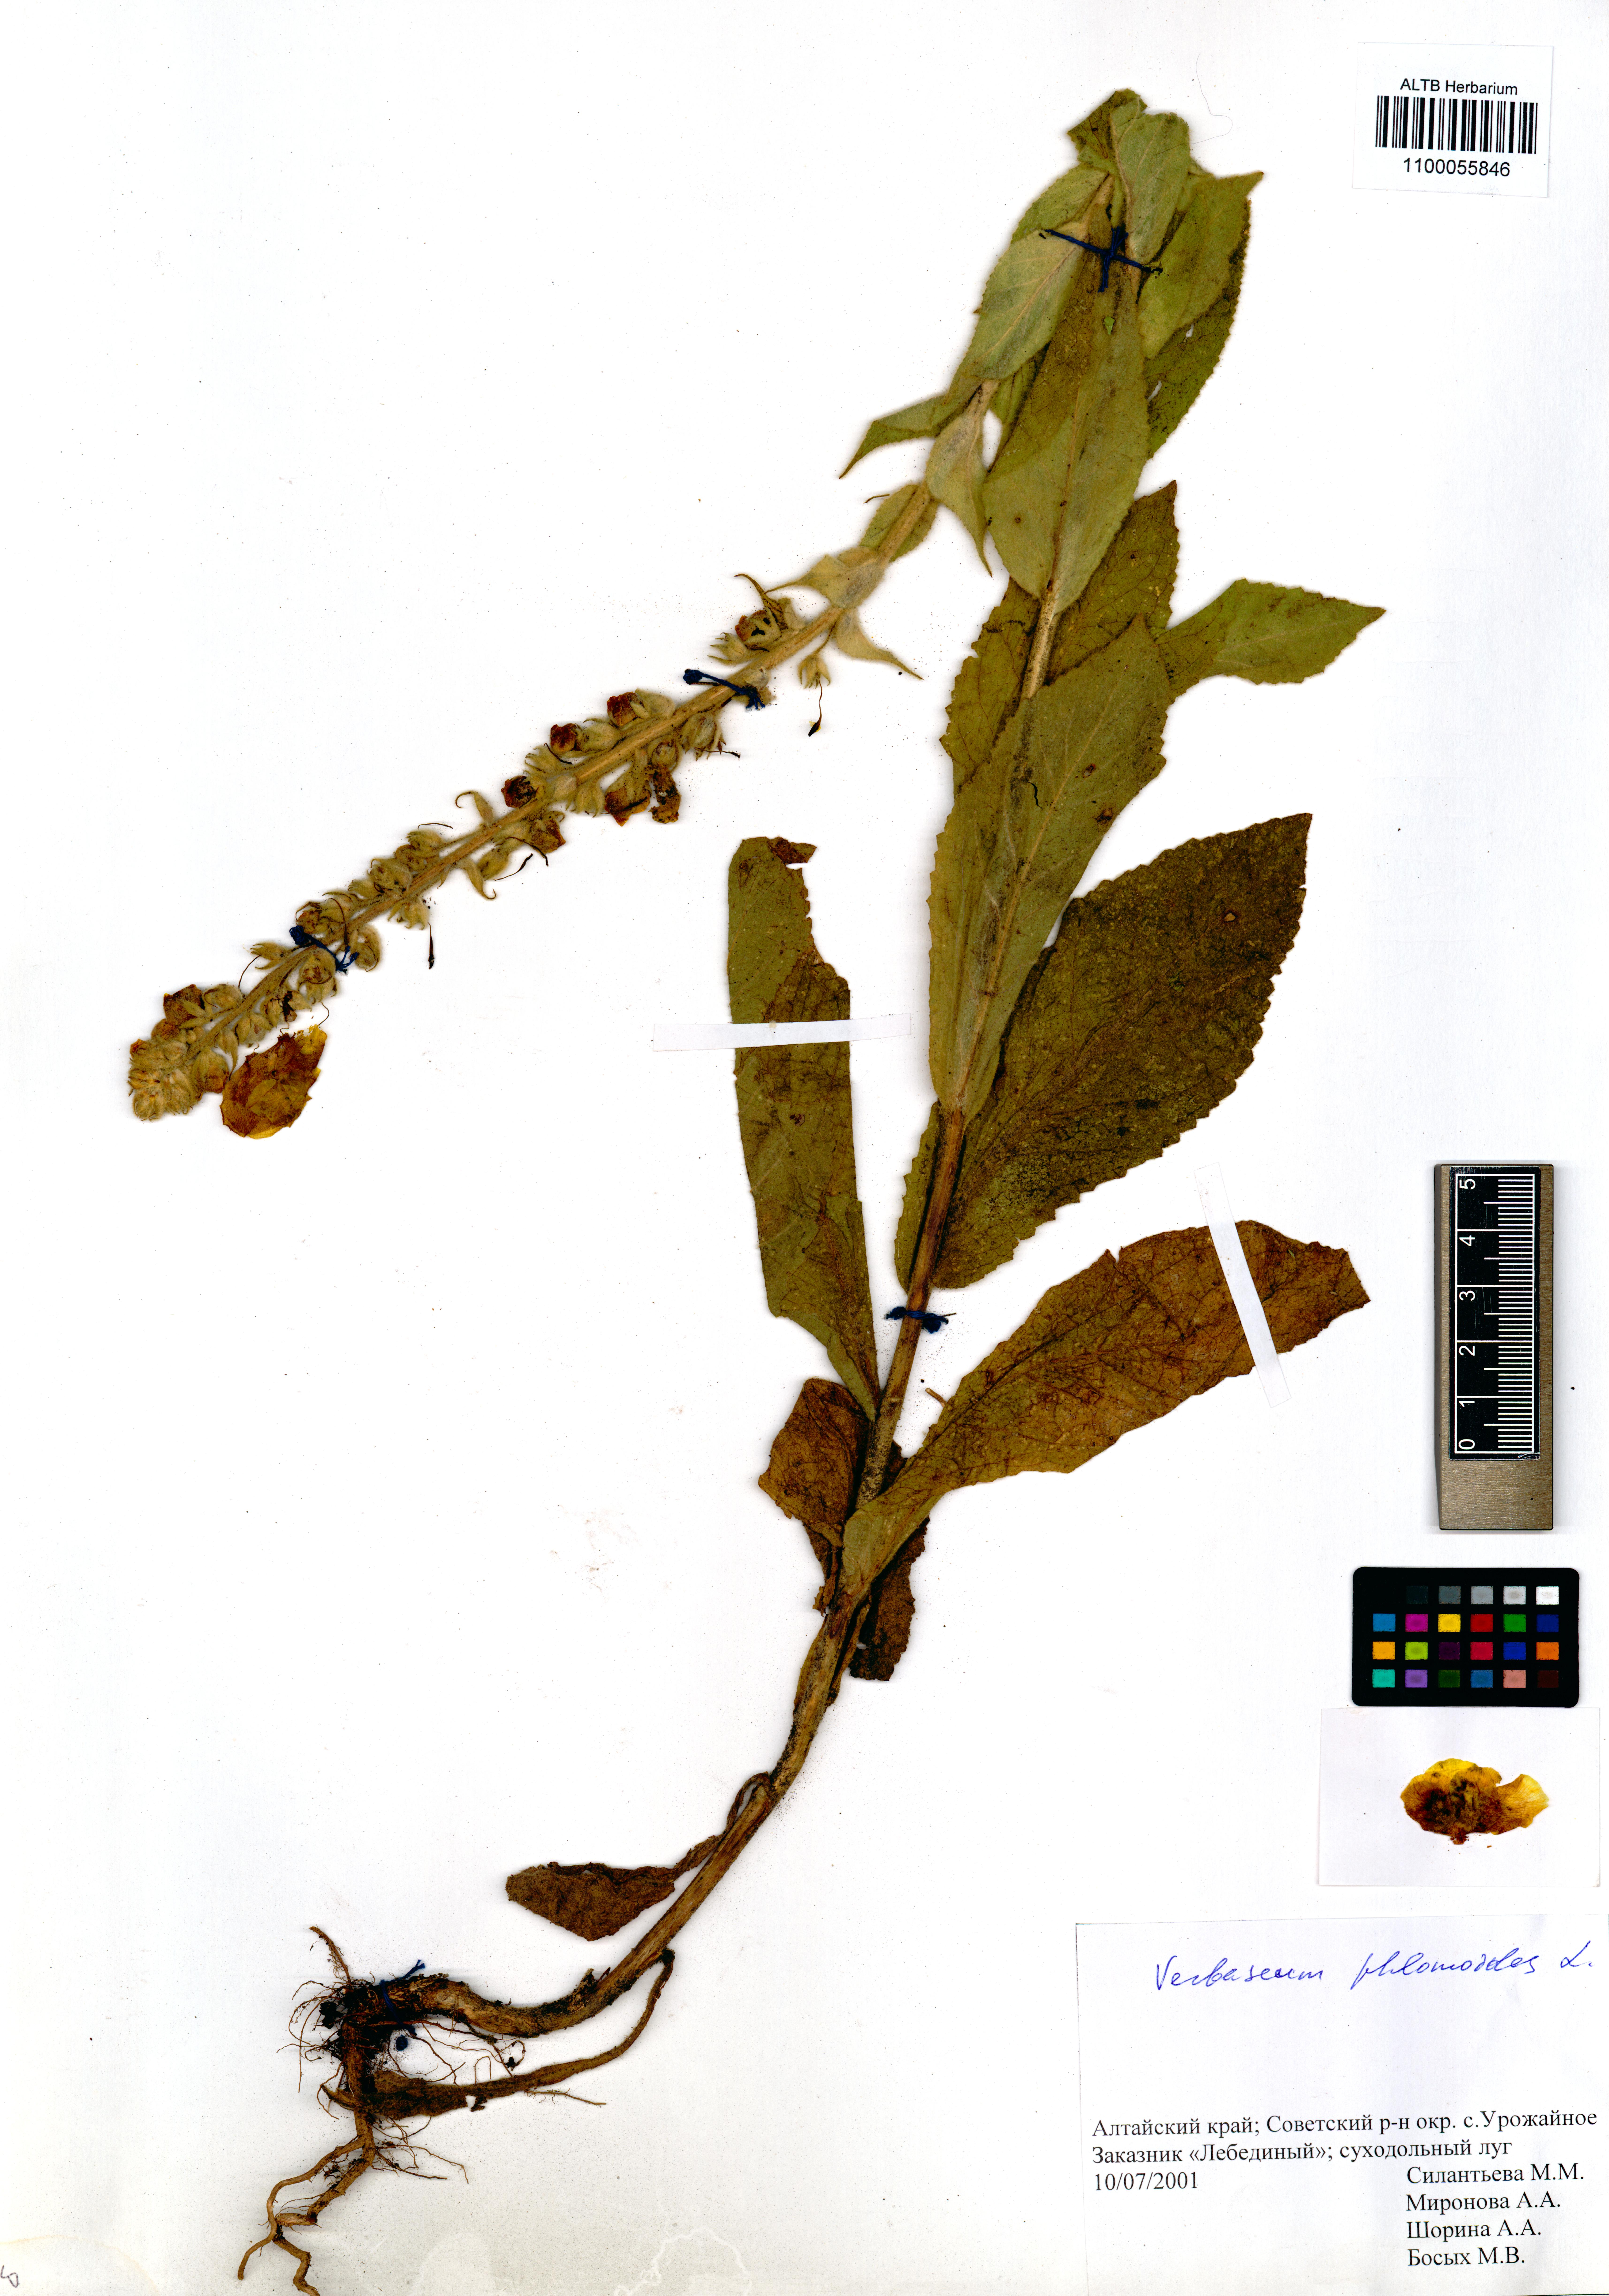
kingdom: Plantae
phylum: Tracheophyta
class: Magnoliopsida
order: Lamiales
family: Scrophulariaceae
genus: Verbascum
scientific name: Verbascum phlomoides
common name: Orange mullein
